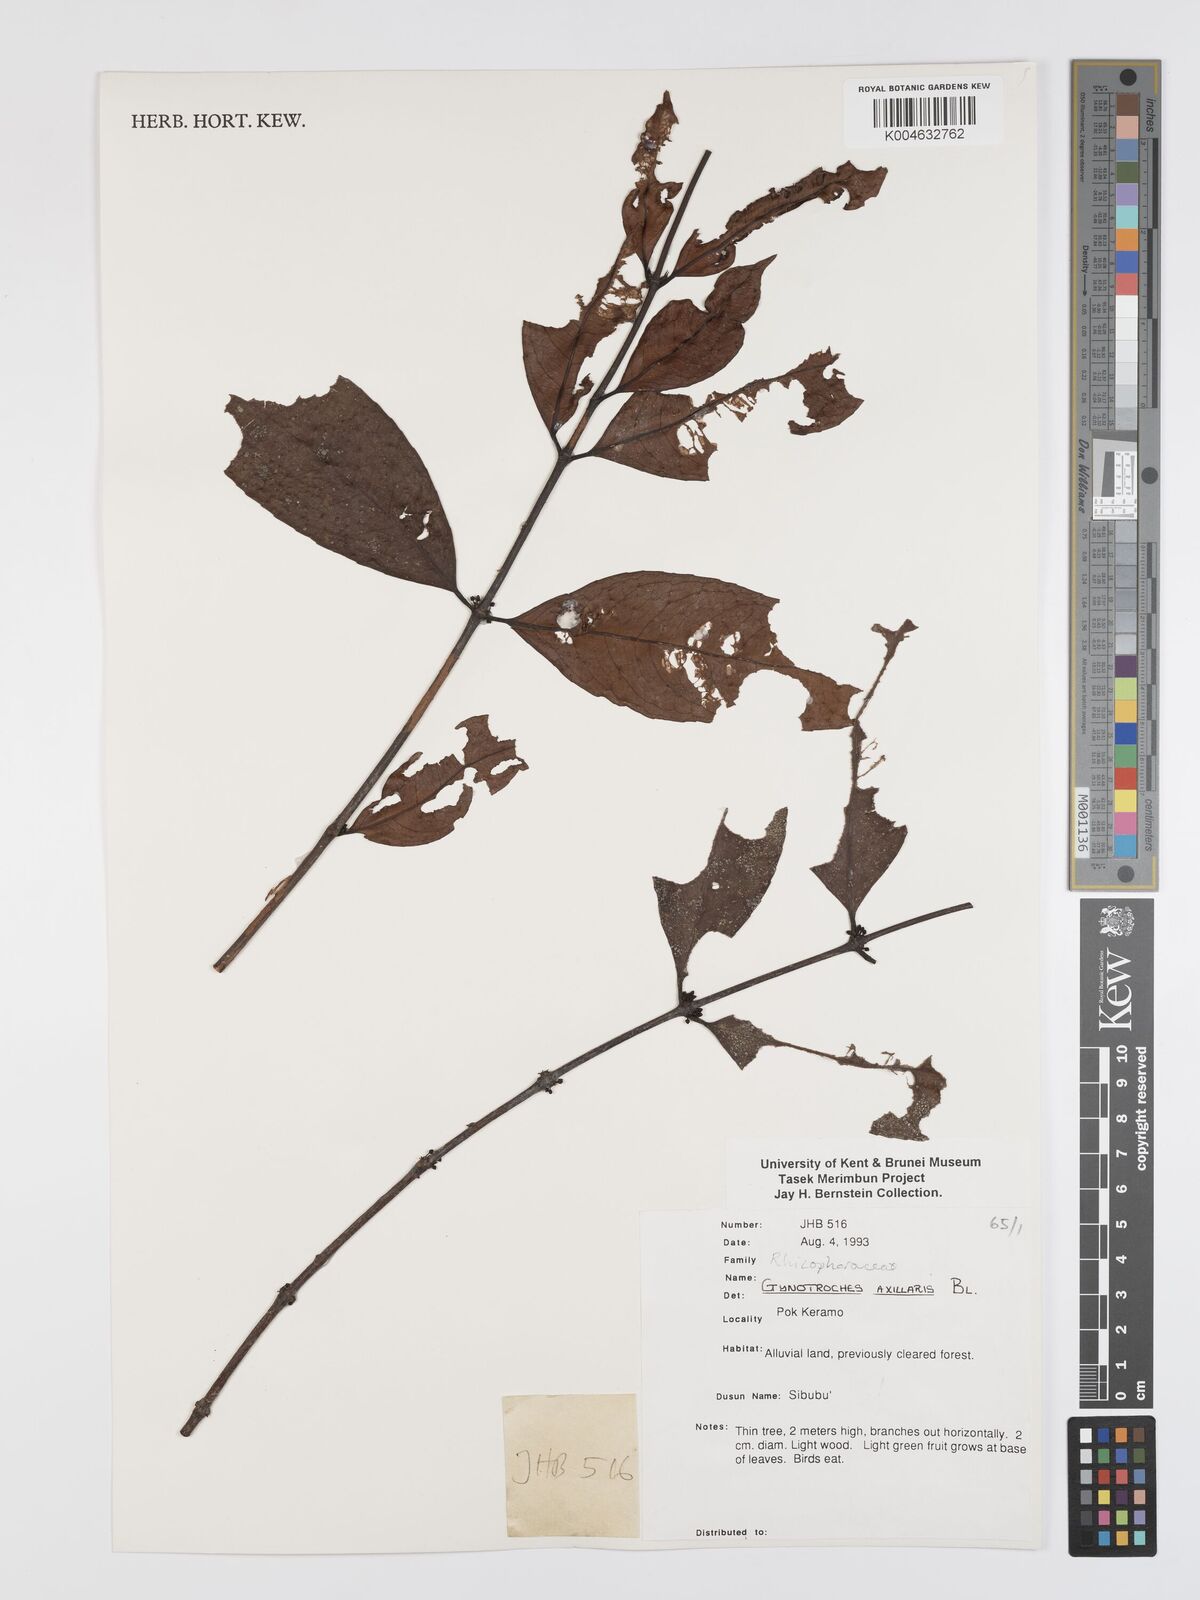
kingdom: Plantae
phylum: Tracheophyta
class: Magnoliopsida
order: Malpighiales
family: Rhizophoraceae
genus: Gynotroches
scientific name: Gynotroches axillaris
